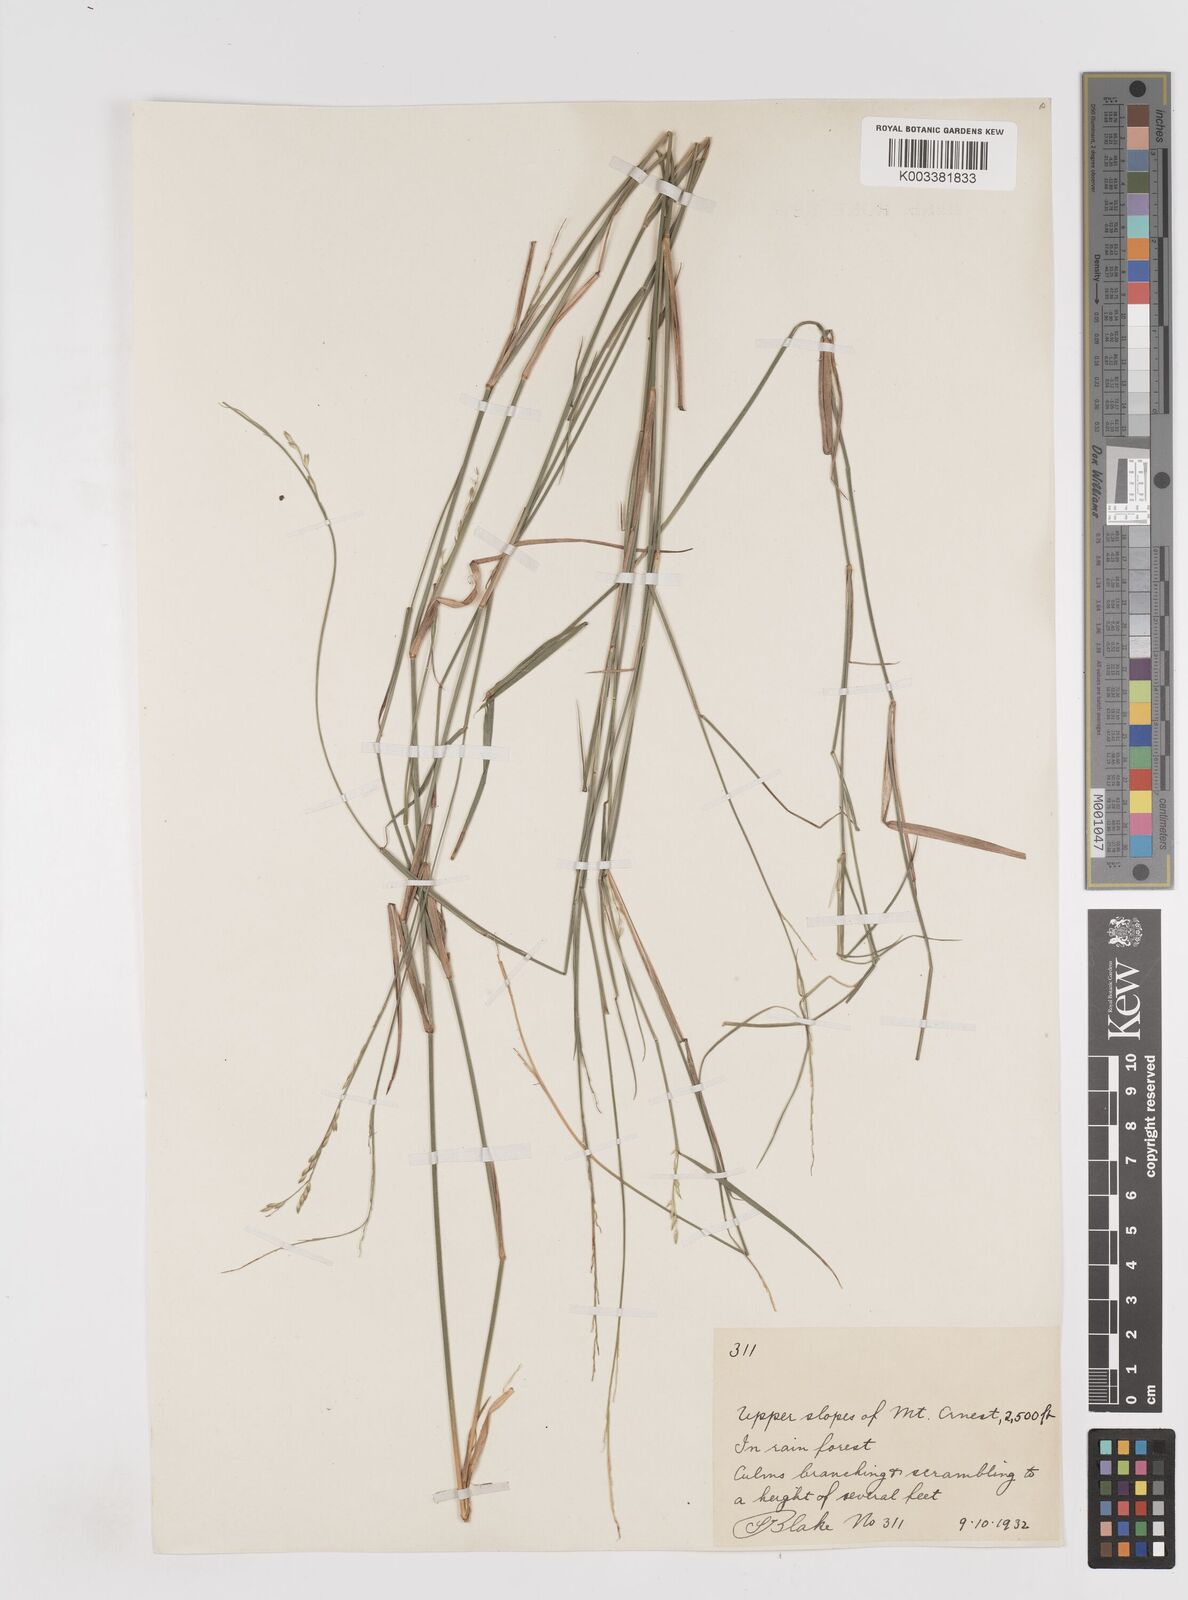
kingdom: Plantae
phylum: Tracheophyta
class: Liliopsida
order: Poales
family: Poaceae
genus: Entolasia
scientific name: Entolasia
